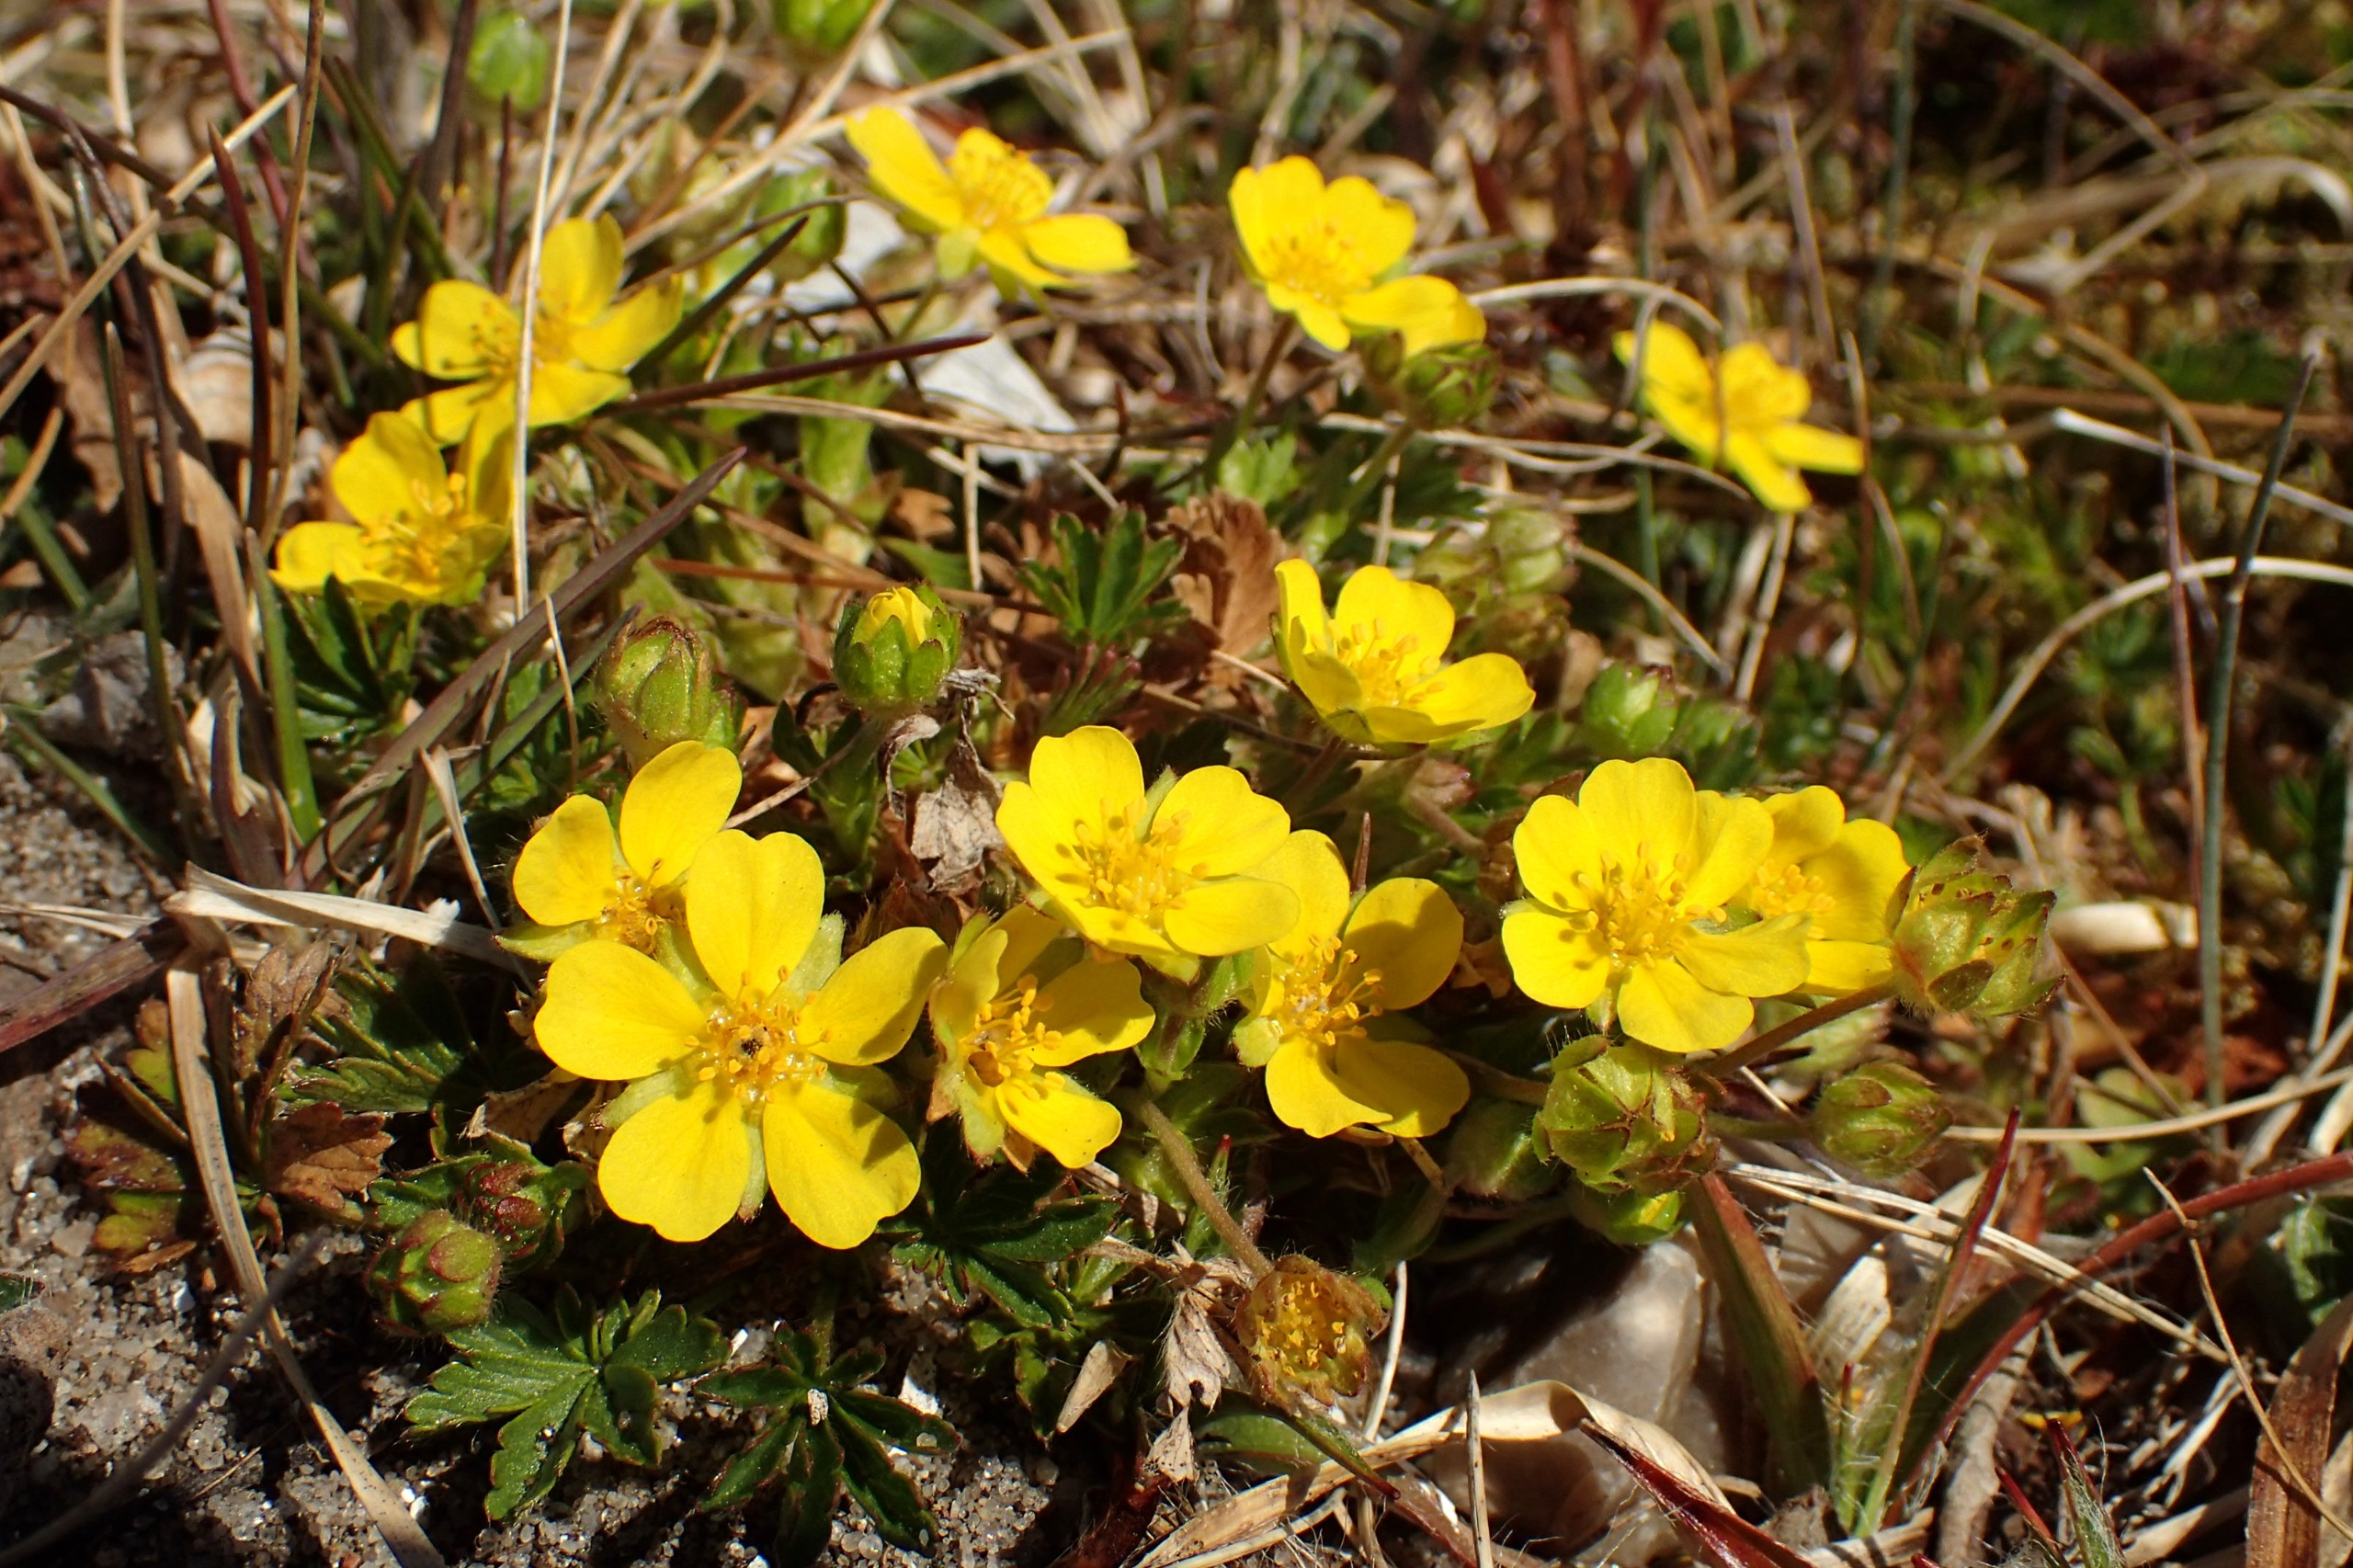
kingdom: Plantae
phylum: Tracheophyta
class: Magnoliopsida
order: Rosales
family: Rosaceae
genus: Potentilla
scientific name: Potentilla verna
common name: Vår-potentil
